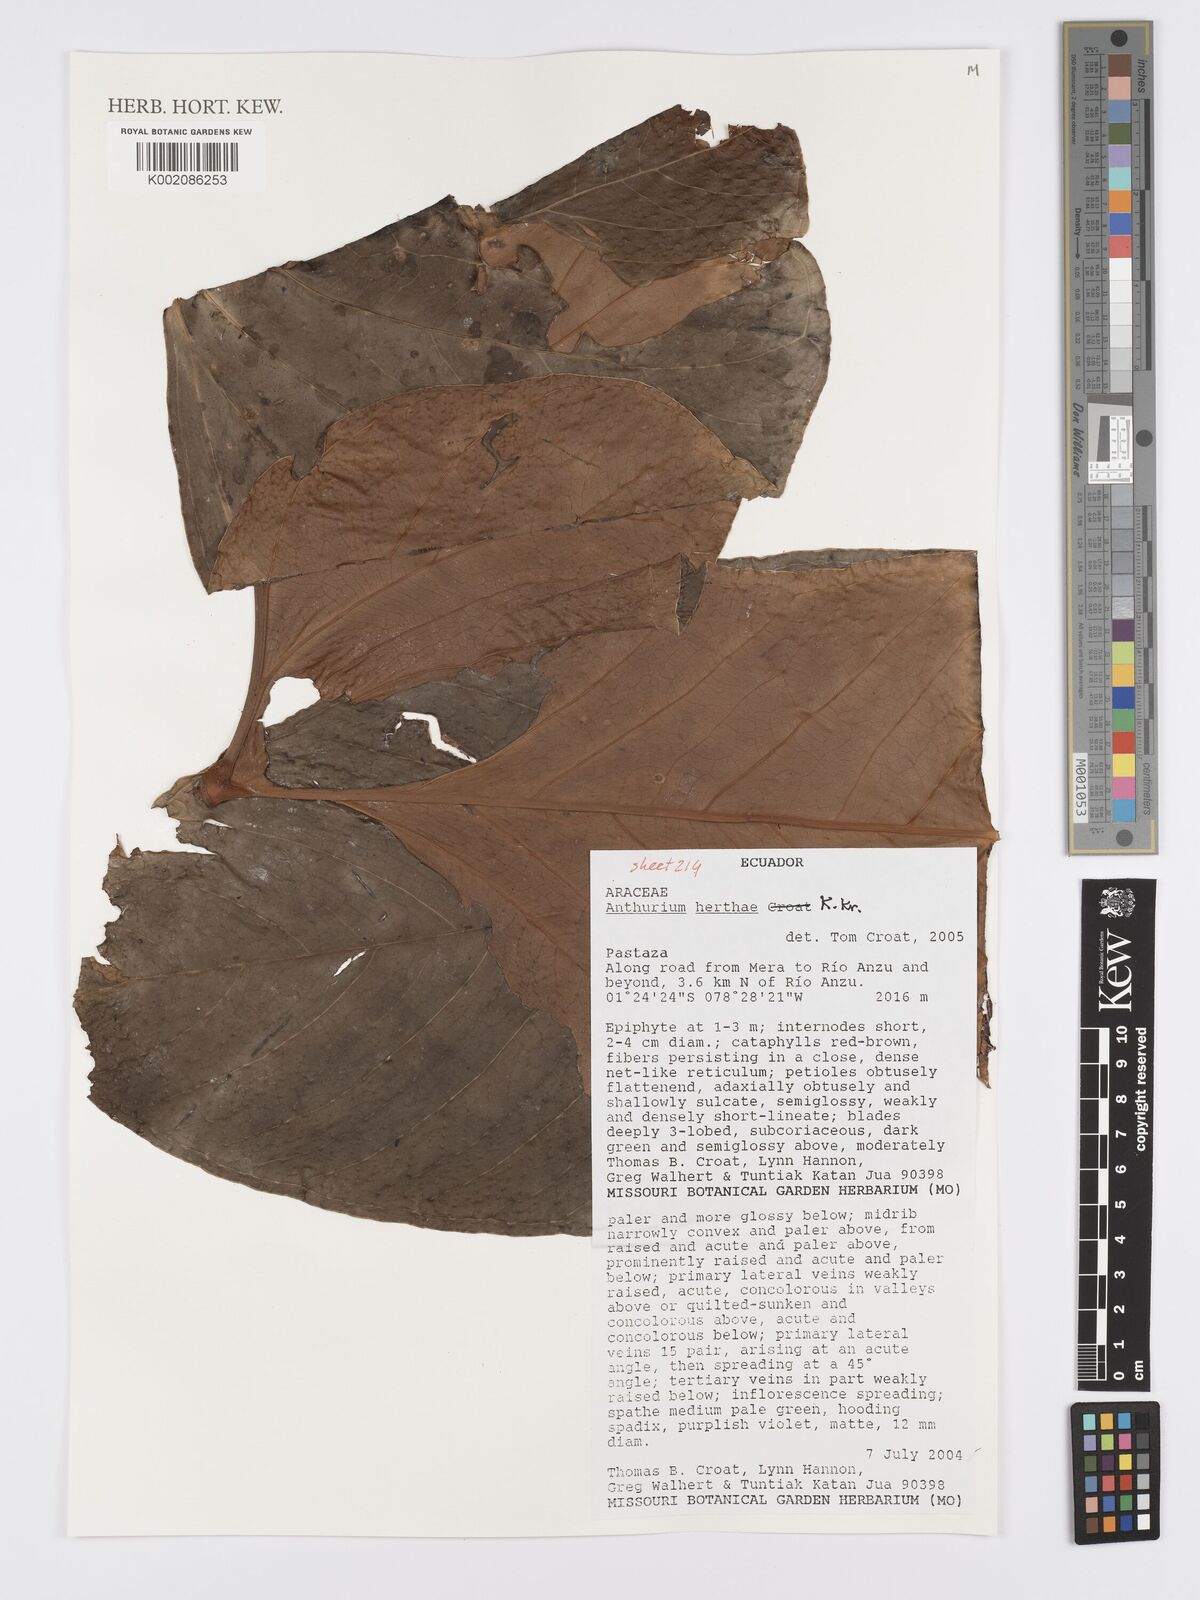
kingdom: Plantae
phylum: Tracheophyta
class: Liliopsida
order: Alismatales
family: Araceae
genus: Anthurium
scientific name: Anthurium herthae
